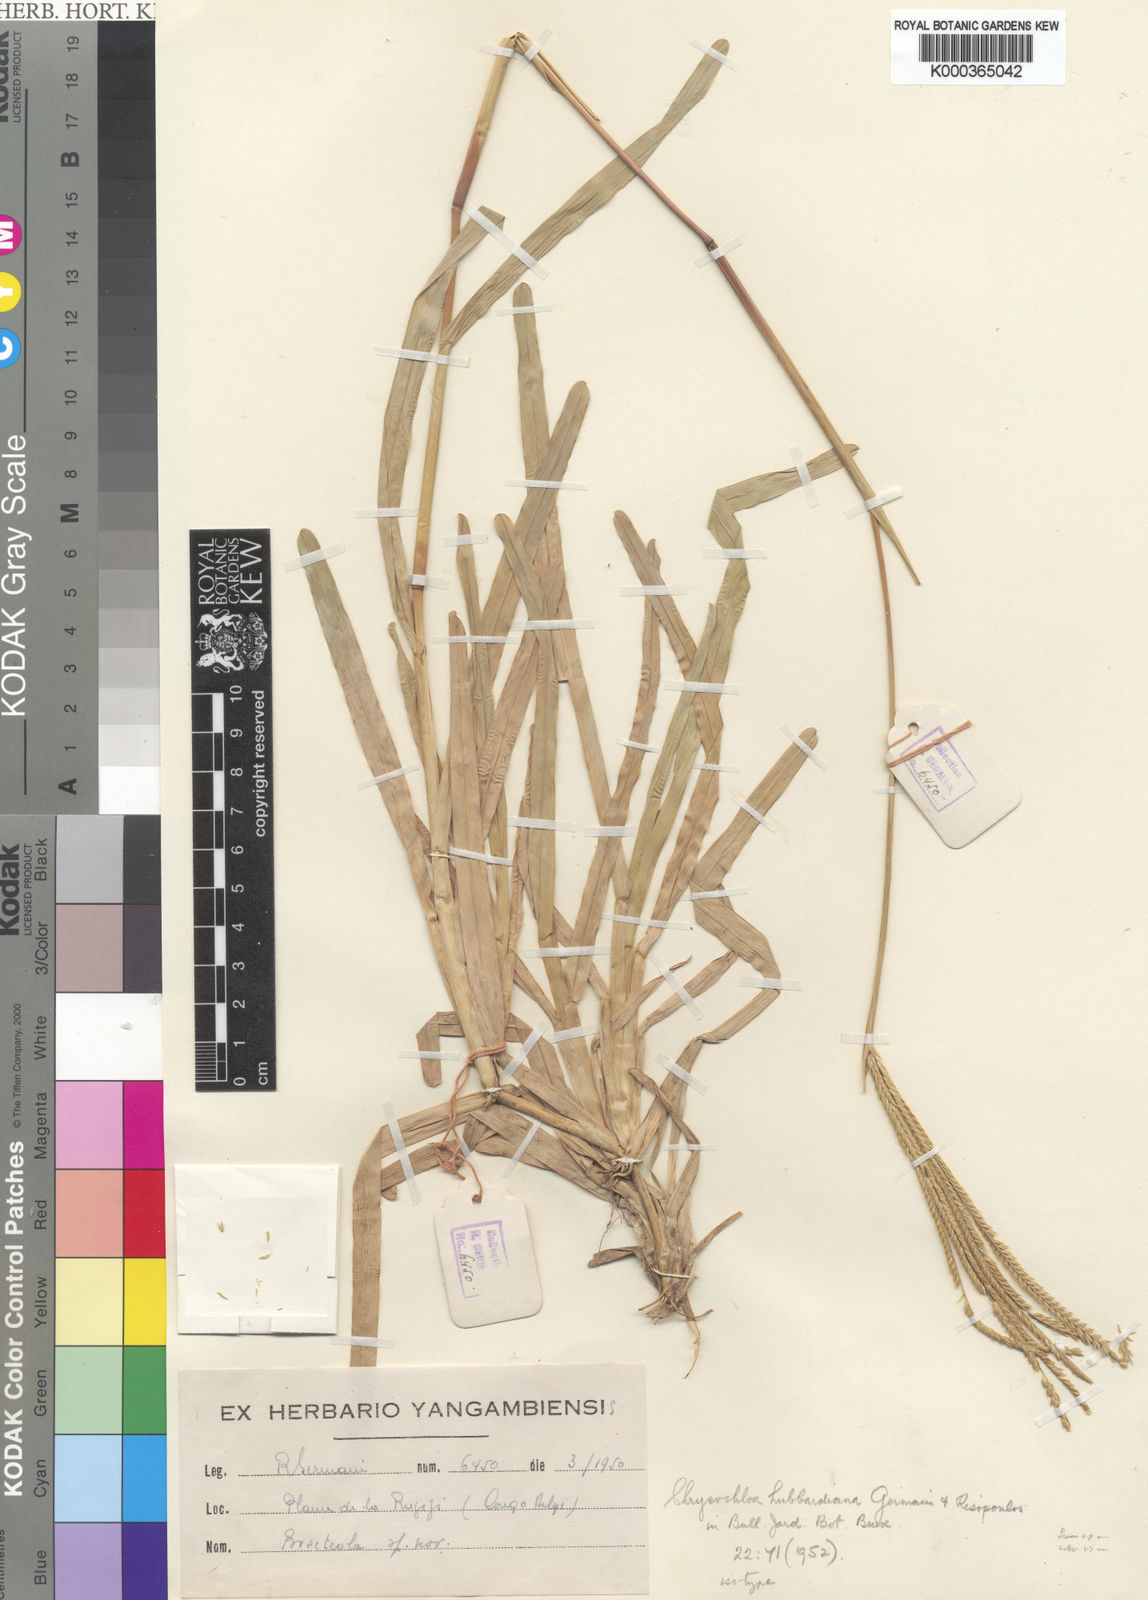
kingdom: Plantae
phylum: Tracheophyta
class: Liliopsida
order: Poales
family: Poaceae
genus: Chrysochloa
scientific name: Chrysochloa hubbardiana
